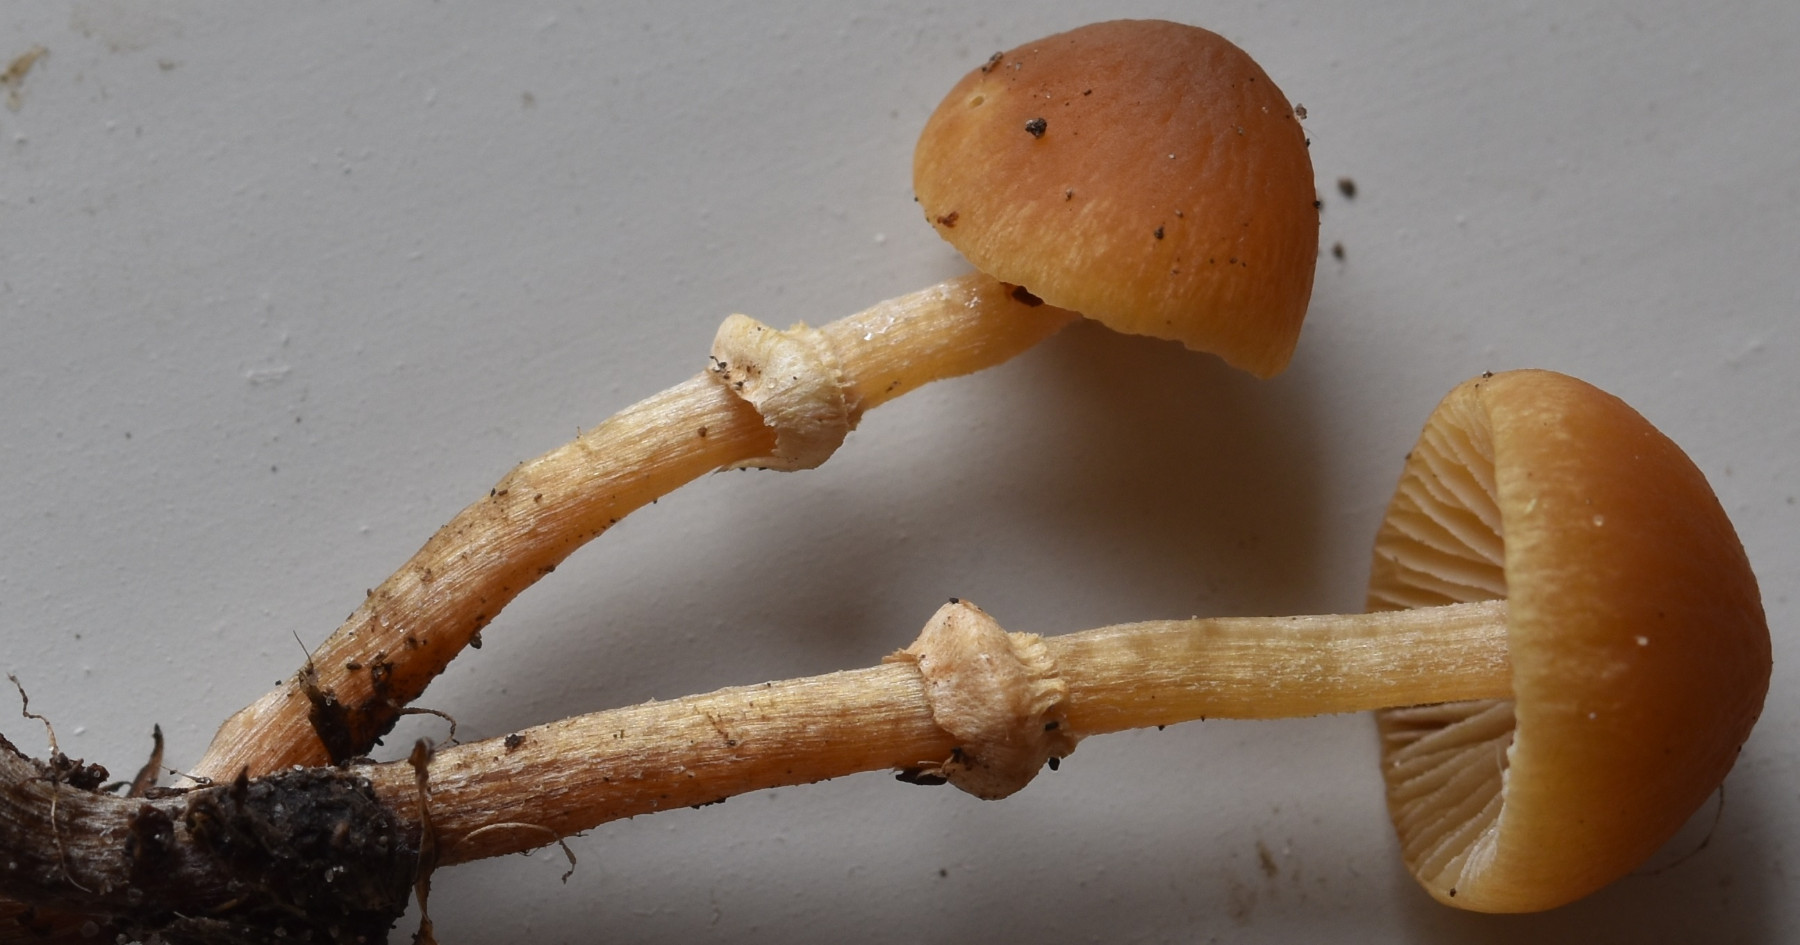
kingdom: Fungi
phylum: Basidiomycota
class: Agaricomycetes
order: Agaricales
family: Bolbitiaceae
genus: Pholiotina
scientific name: Pholiotina teneroides
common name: tosporet dansehat
